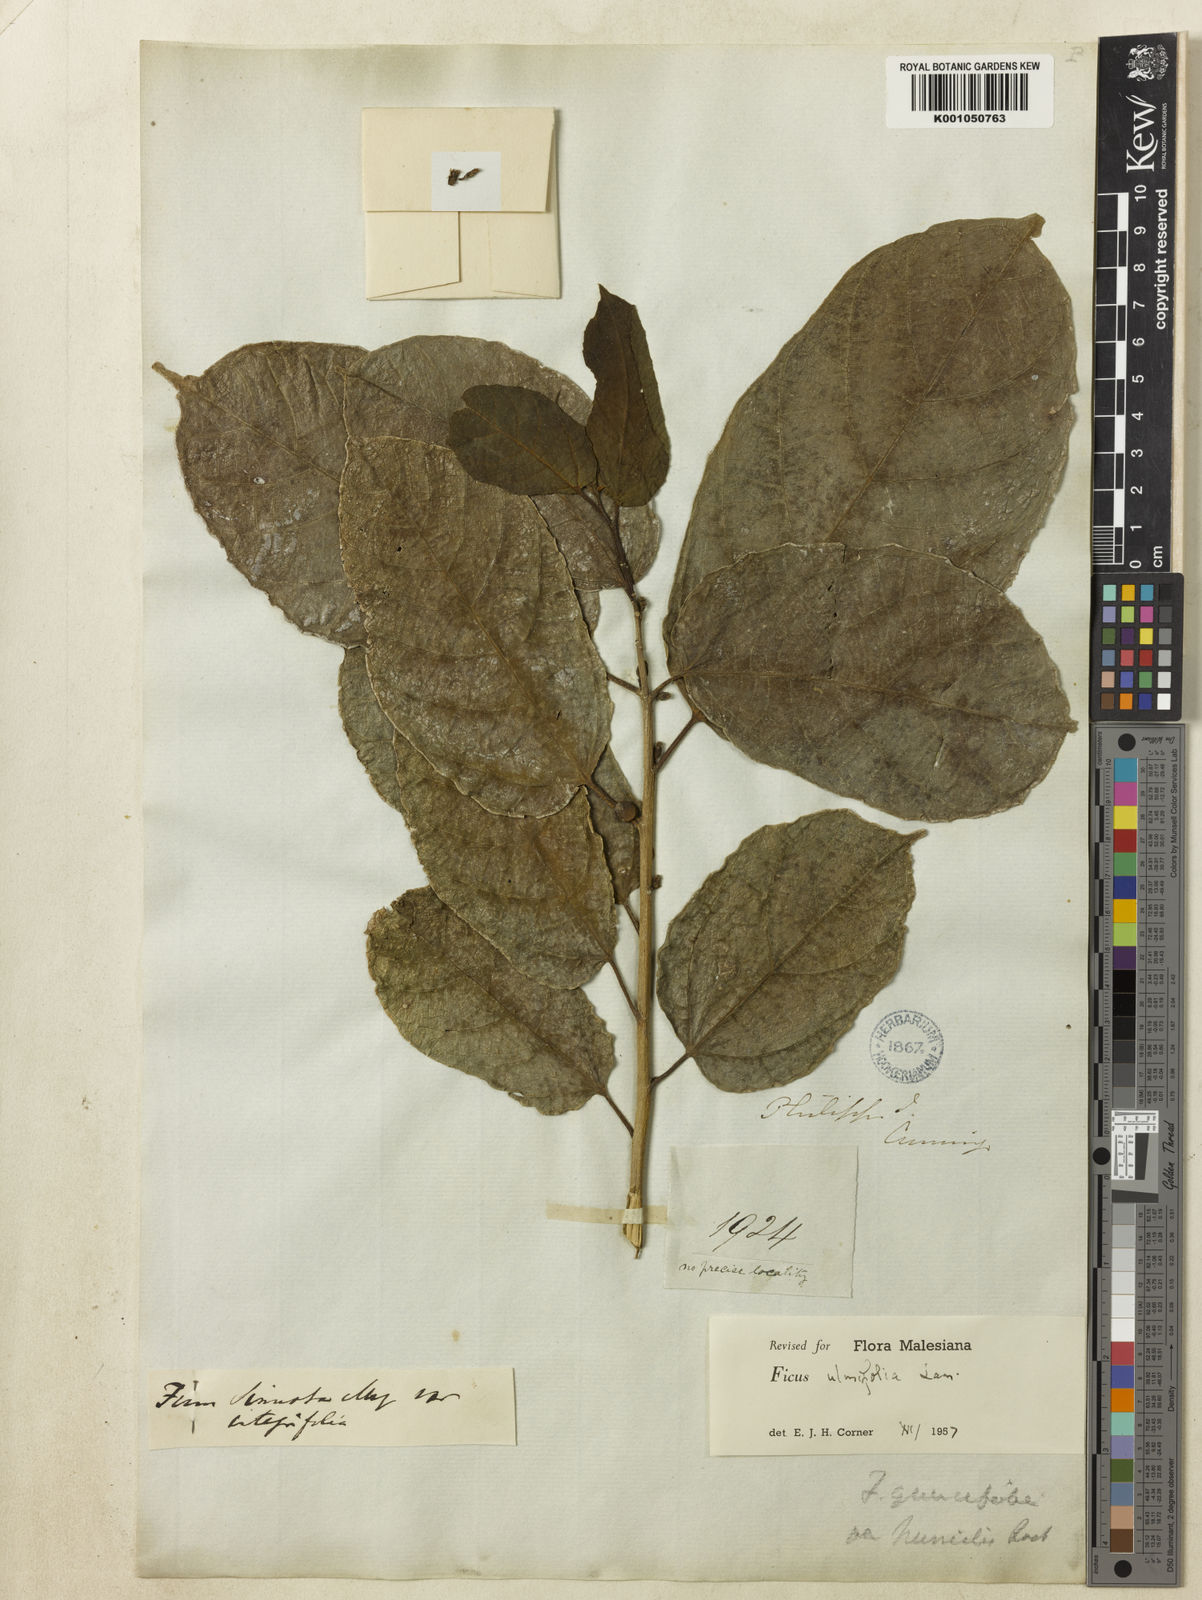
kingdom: Plantae
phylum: Tracheophyta
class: Magnoliopsida
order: Rosales
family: Moraceae
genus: Ficus
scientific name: Ficus ulmifolia
